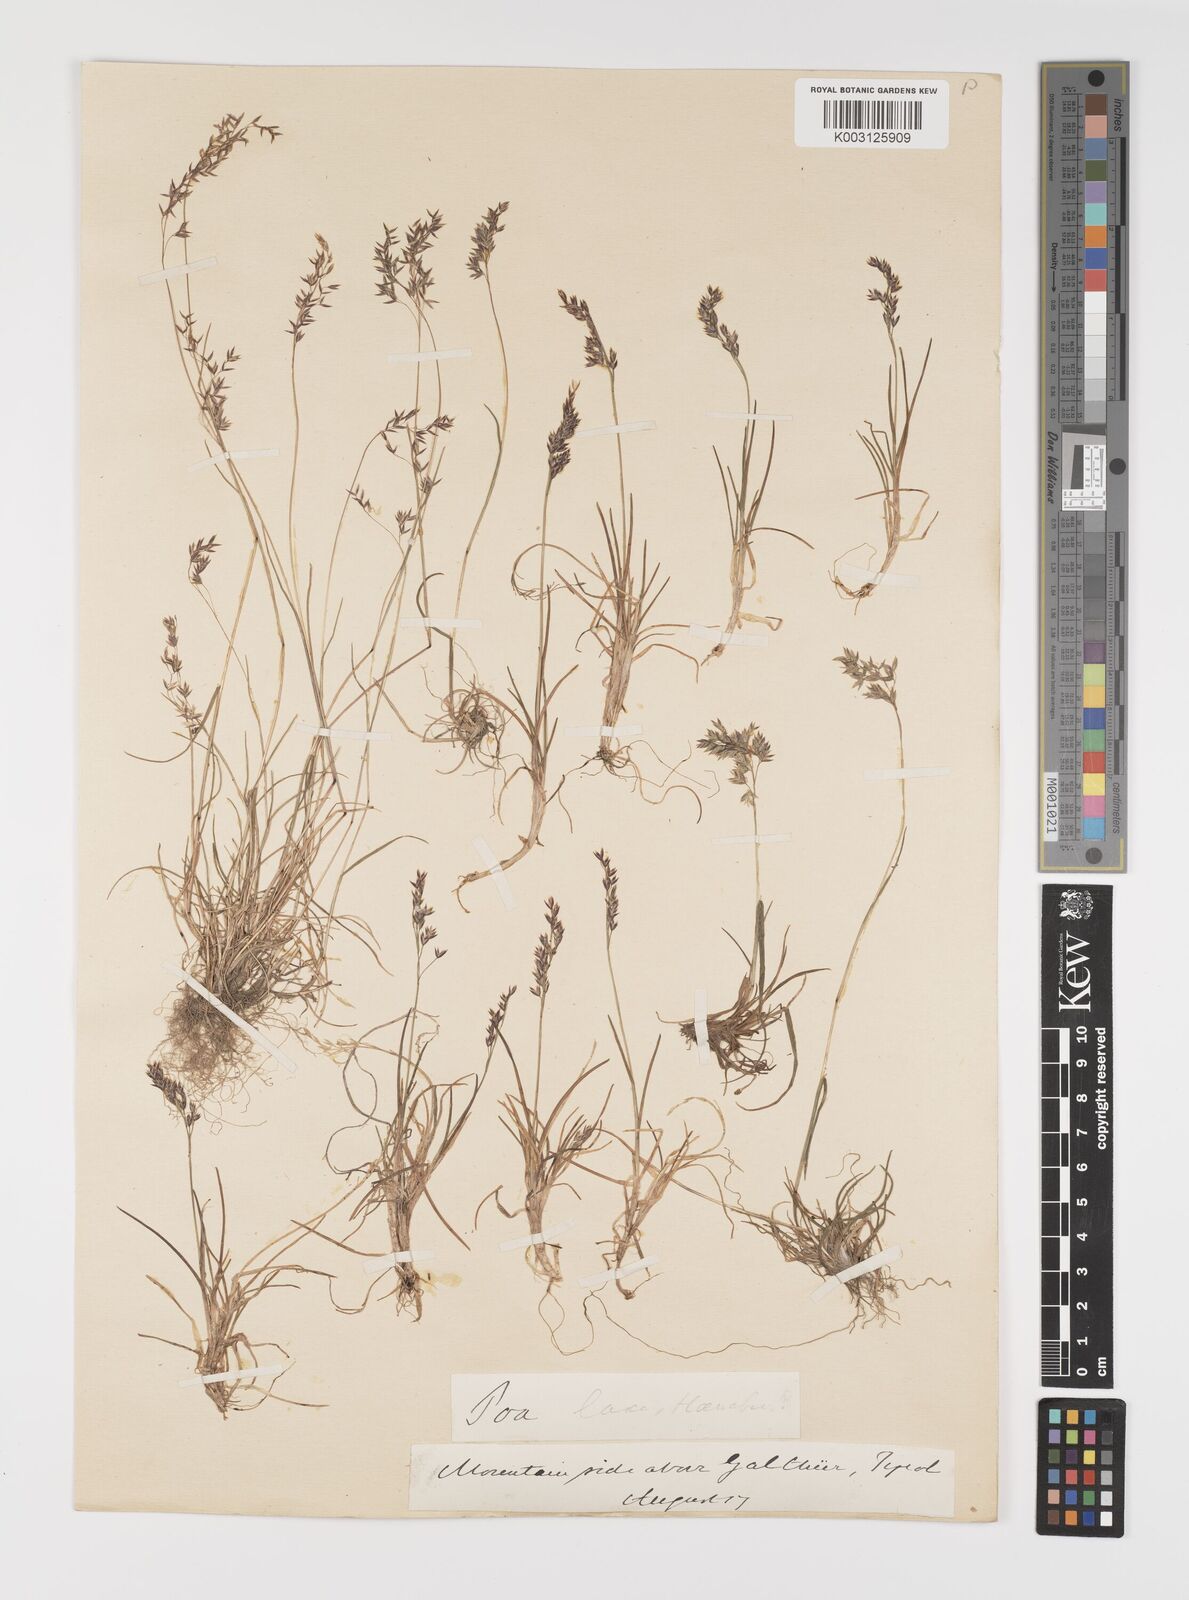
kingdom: Plantae
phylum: Tracheophyta
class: Liliopsida
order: Poales
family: Poaceae
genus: Poa
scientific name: Poa laxa
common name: Lax bluegrass
